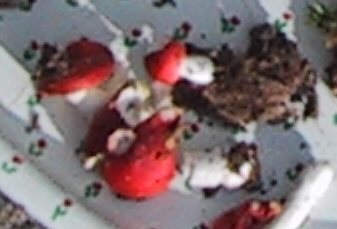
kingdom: Fungi
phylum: Basidiomycota
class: Agaricomycetes
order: Russulales
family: Russulaceae
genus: Russula
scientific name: Russula emetica
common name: stor gift-skørhat
